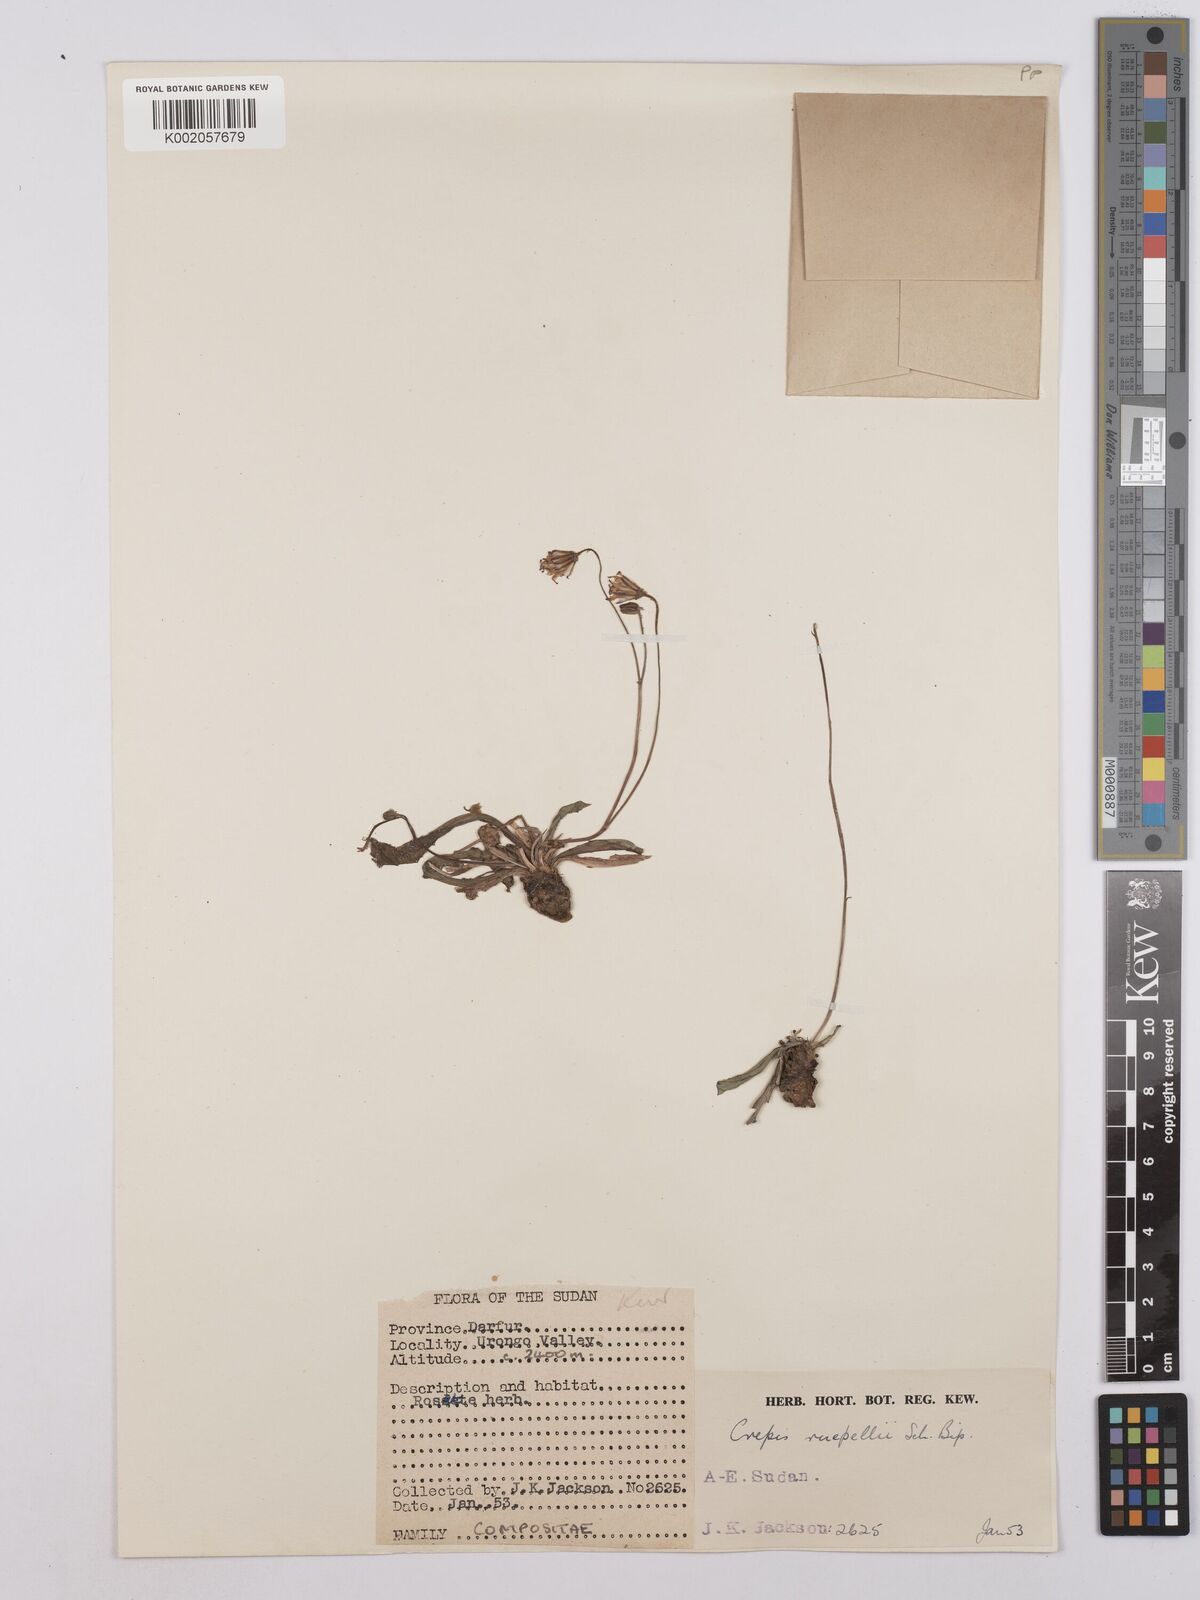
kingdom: Plantae
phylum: Tracheophyta
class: Magnoliopsida
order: Asterales
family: Asteraceae
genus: Crepis
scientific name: Crepis rueppellii
